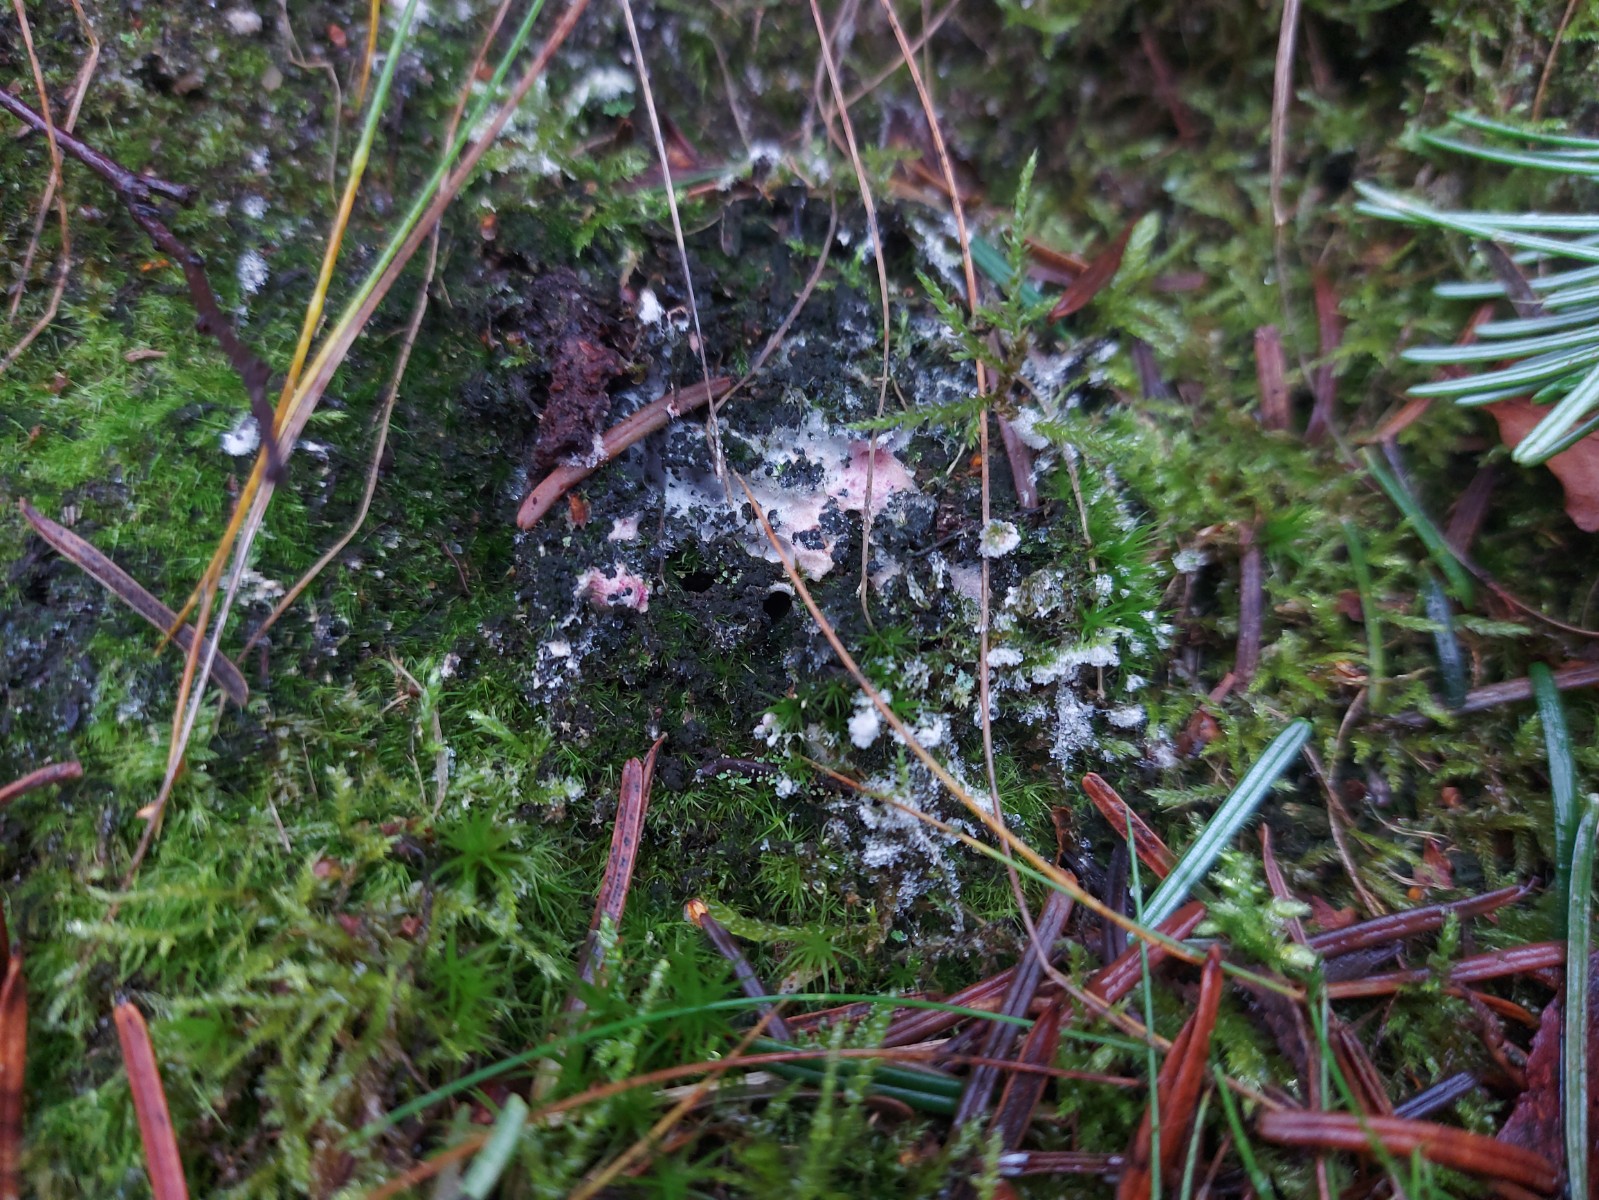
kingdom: Fungi
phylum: Ascomycota
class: Sordariomycetes
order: Hypocreales
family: Hypocreaceae
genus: Hypomyces
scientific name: Hypomyces rosellus
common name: rosa snylteskorpe
